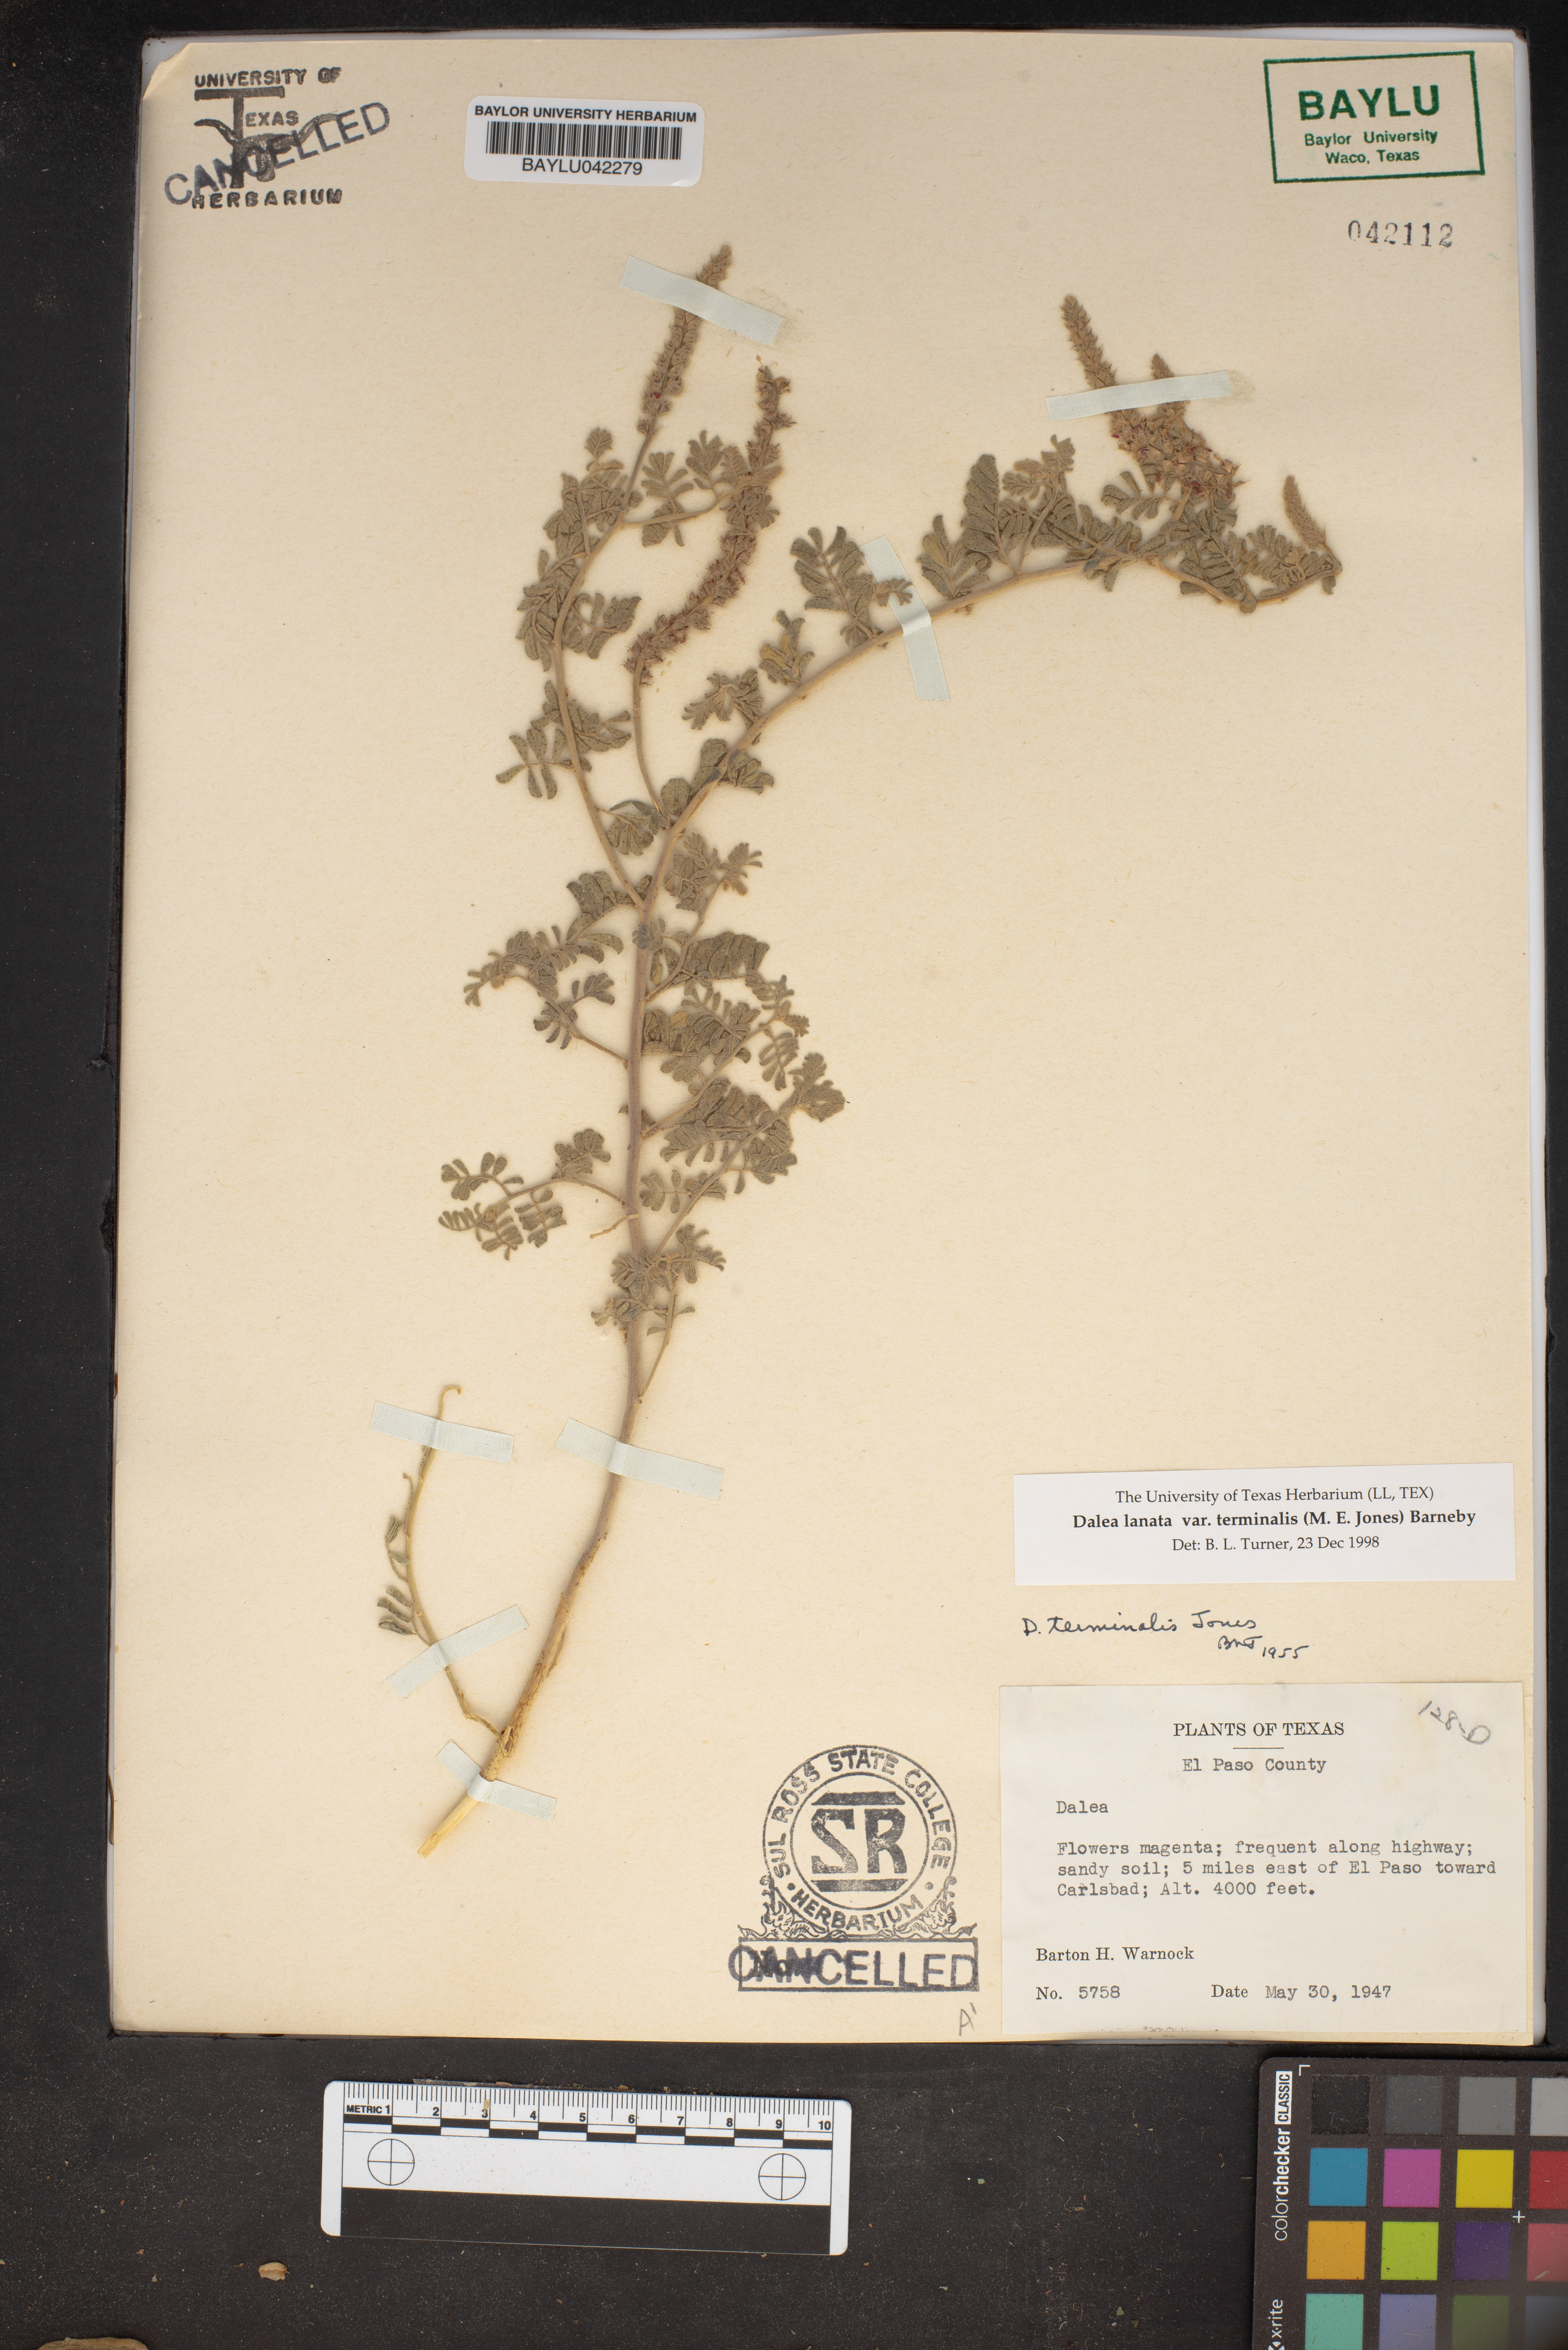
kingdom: Plantae
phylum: Tracheophyta
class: Magnoliopsida
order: Fabales
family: Fabaceae
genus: Dalea
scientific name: Dalea lanata
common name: Woolly dalea
